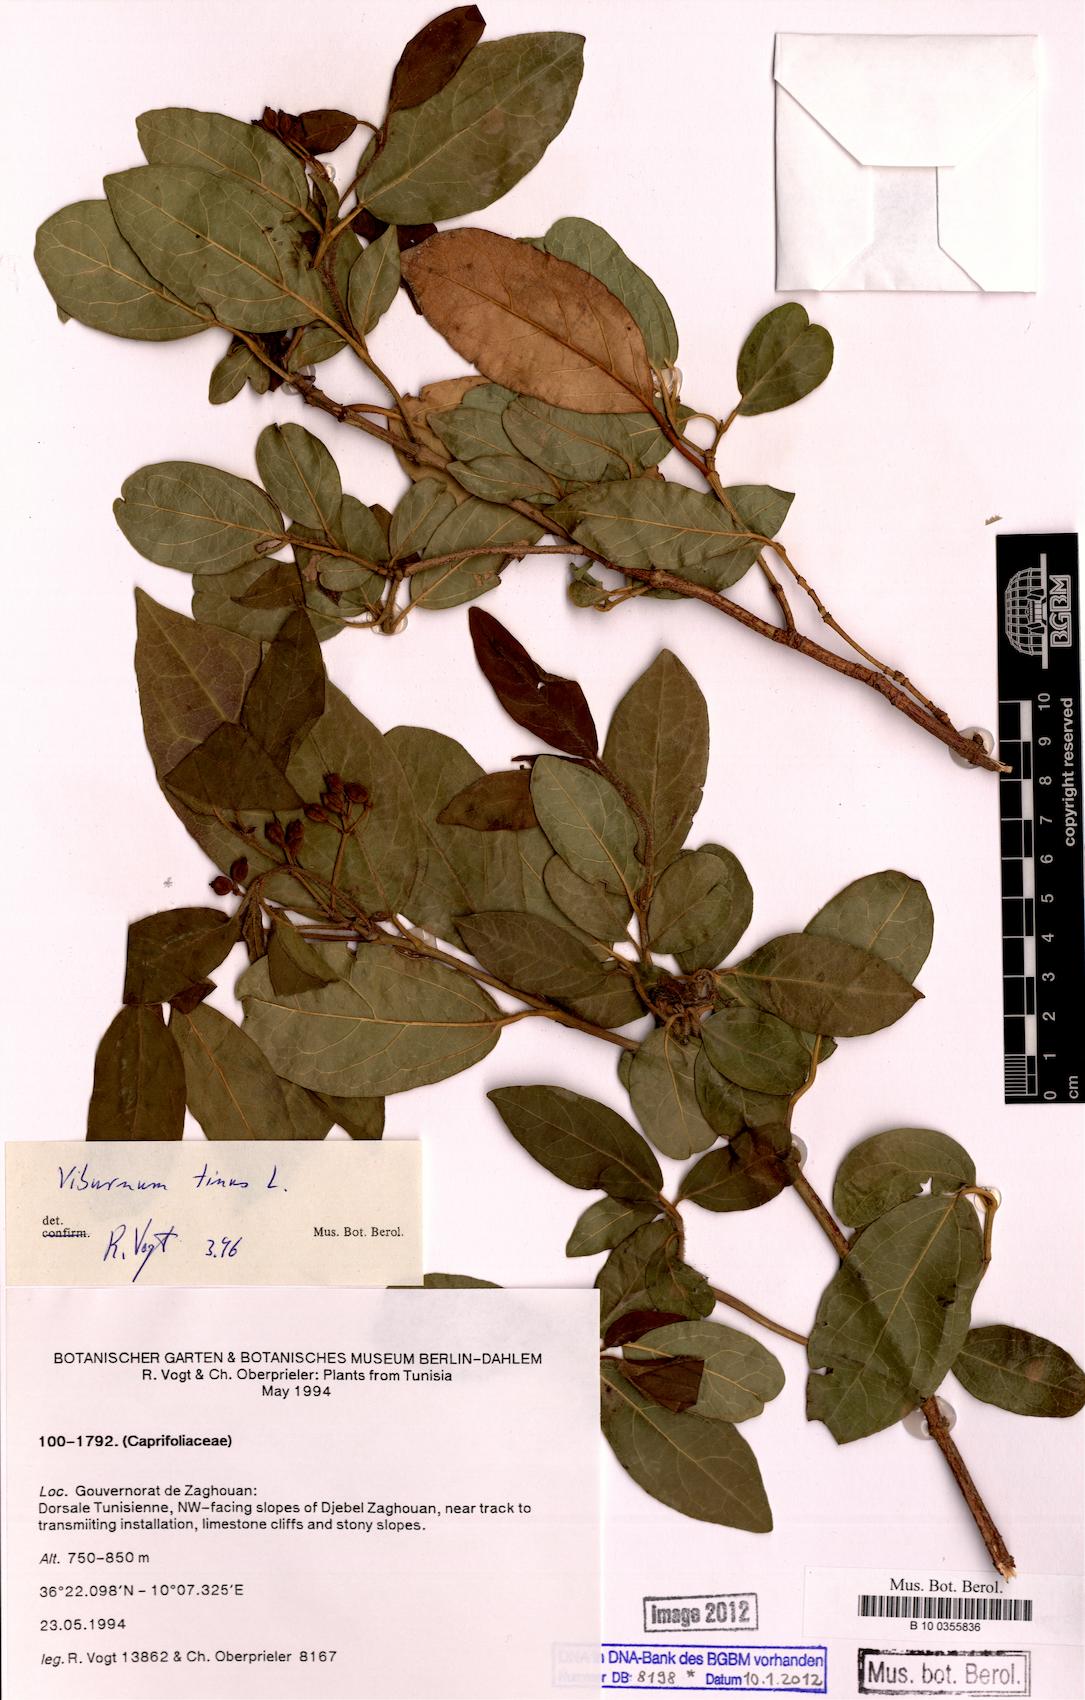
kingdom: Plantae
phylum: Tracheophyta
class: Magnoliopsida
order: Dipsacales
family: Viburnaceae
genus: Viburnum
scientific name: Viburnum tinus
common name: Laurustinus
